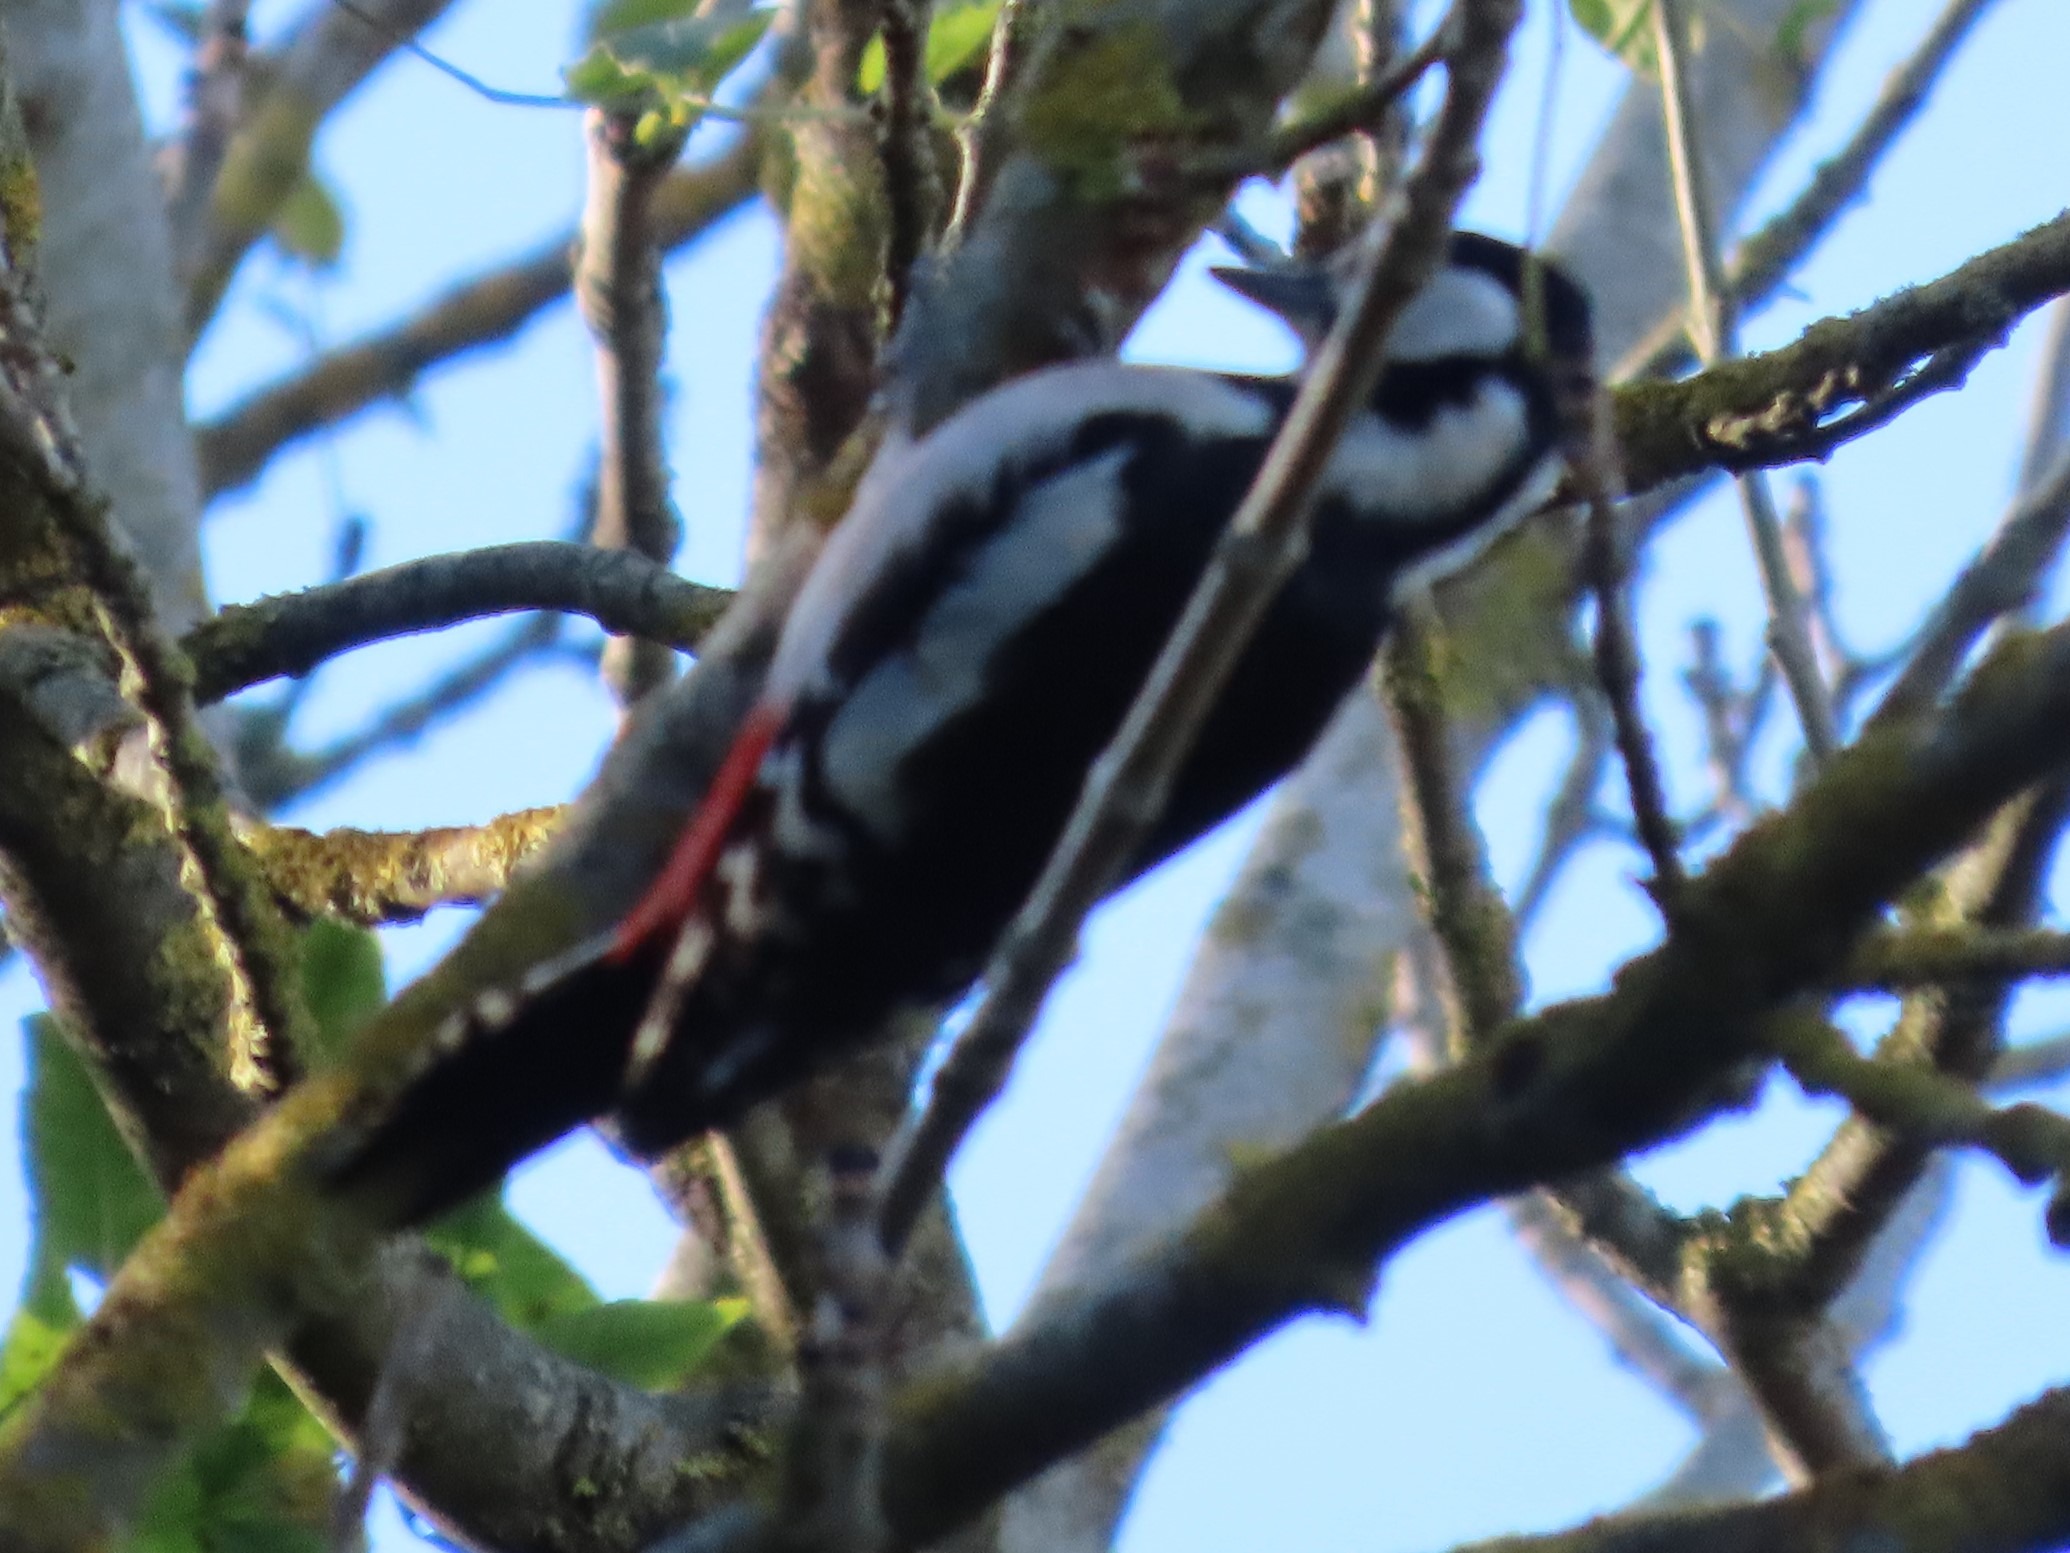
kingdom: Animalia
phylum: Chordata
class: Aves
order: Piciformes
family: Picidae
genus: Dendrocopos
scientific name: Dendrocopos major
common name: Stor flagspætte
